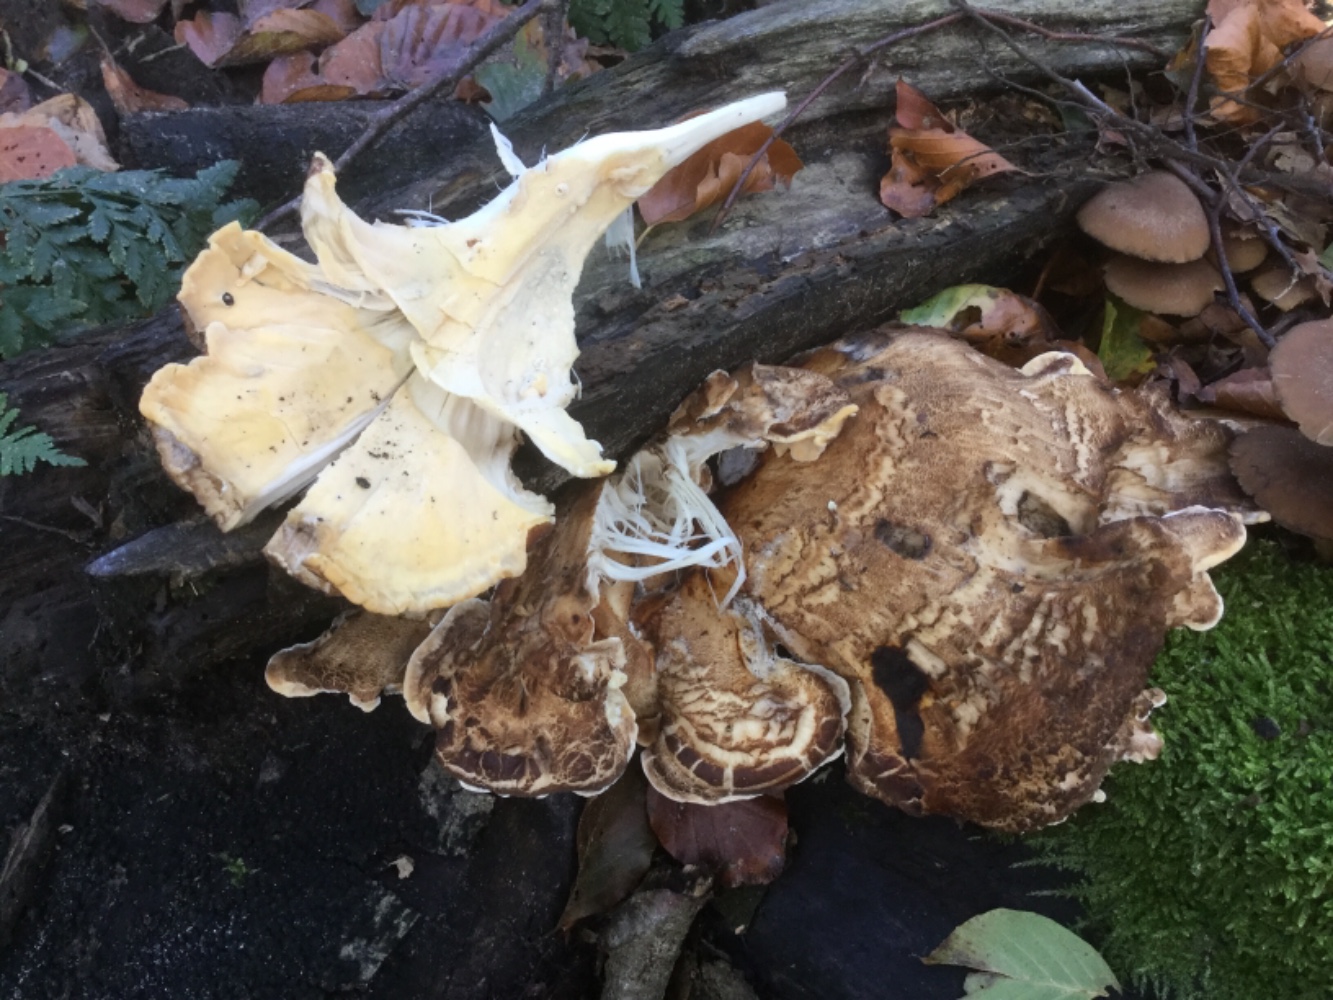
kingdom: Fungi
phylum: Basidiomycota
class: Agaricomycetes
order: Polyporales
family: Meripilaceae
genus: Meripilus
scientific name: Meripilus giganteus
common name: kæmpeporesvamp
